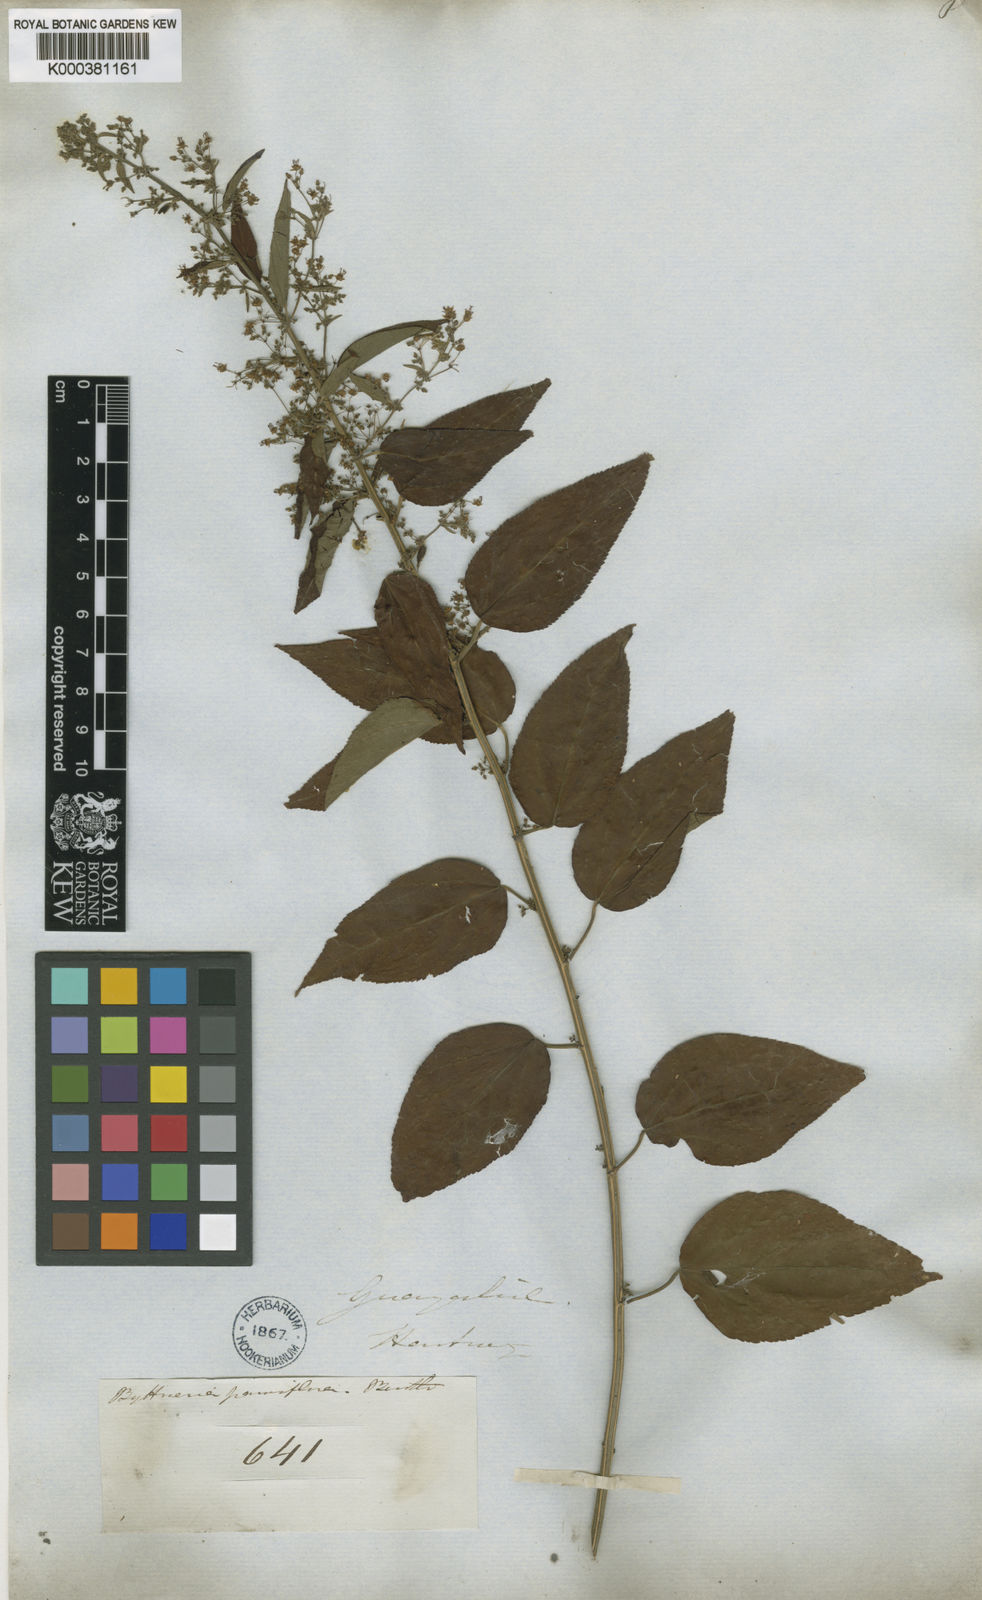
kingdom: Plantae
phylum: Tracheophyta
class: Magnoliopsida
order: Malvales
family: Malvaceae
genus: Byttneria
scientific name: Byttneria corchorifolia
